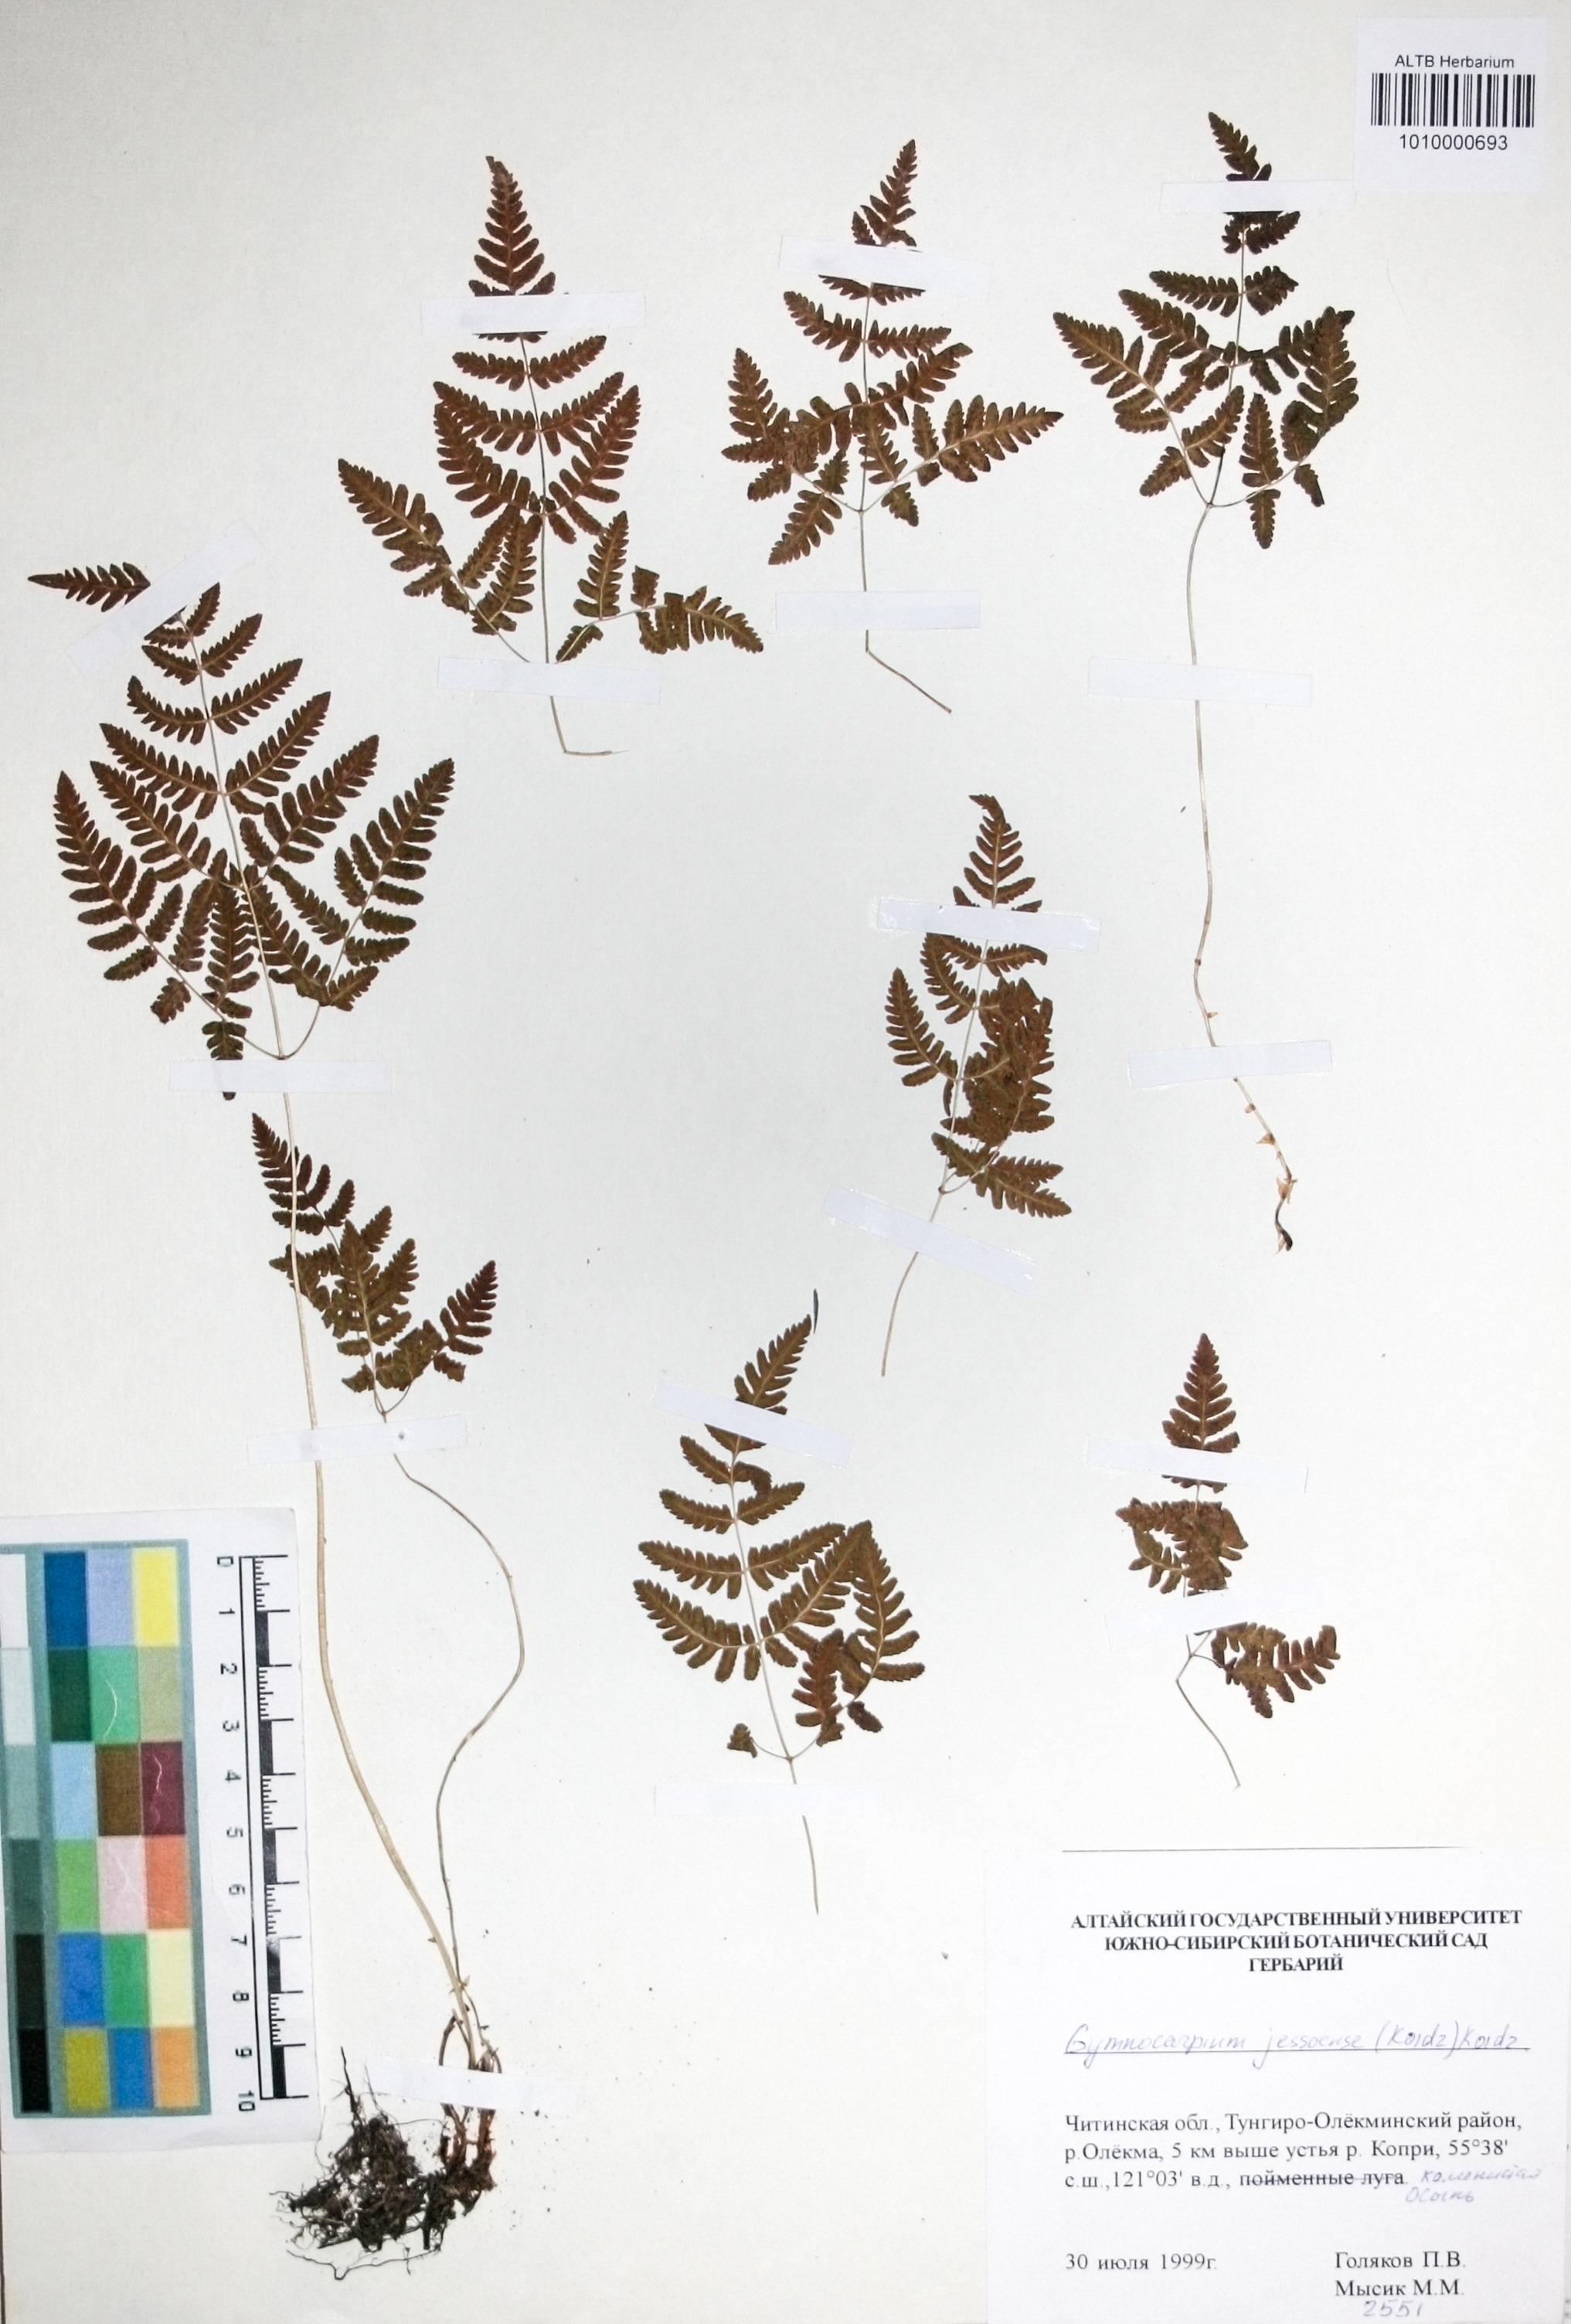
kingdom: Plantae
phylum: Tracheophyta
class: Polypodiopsida
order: Polypodiales
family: Cystopteridaceae
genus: Gymnocarpium
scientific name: Gymnocarpium jessoense
